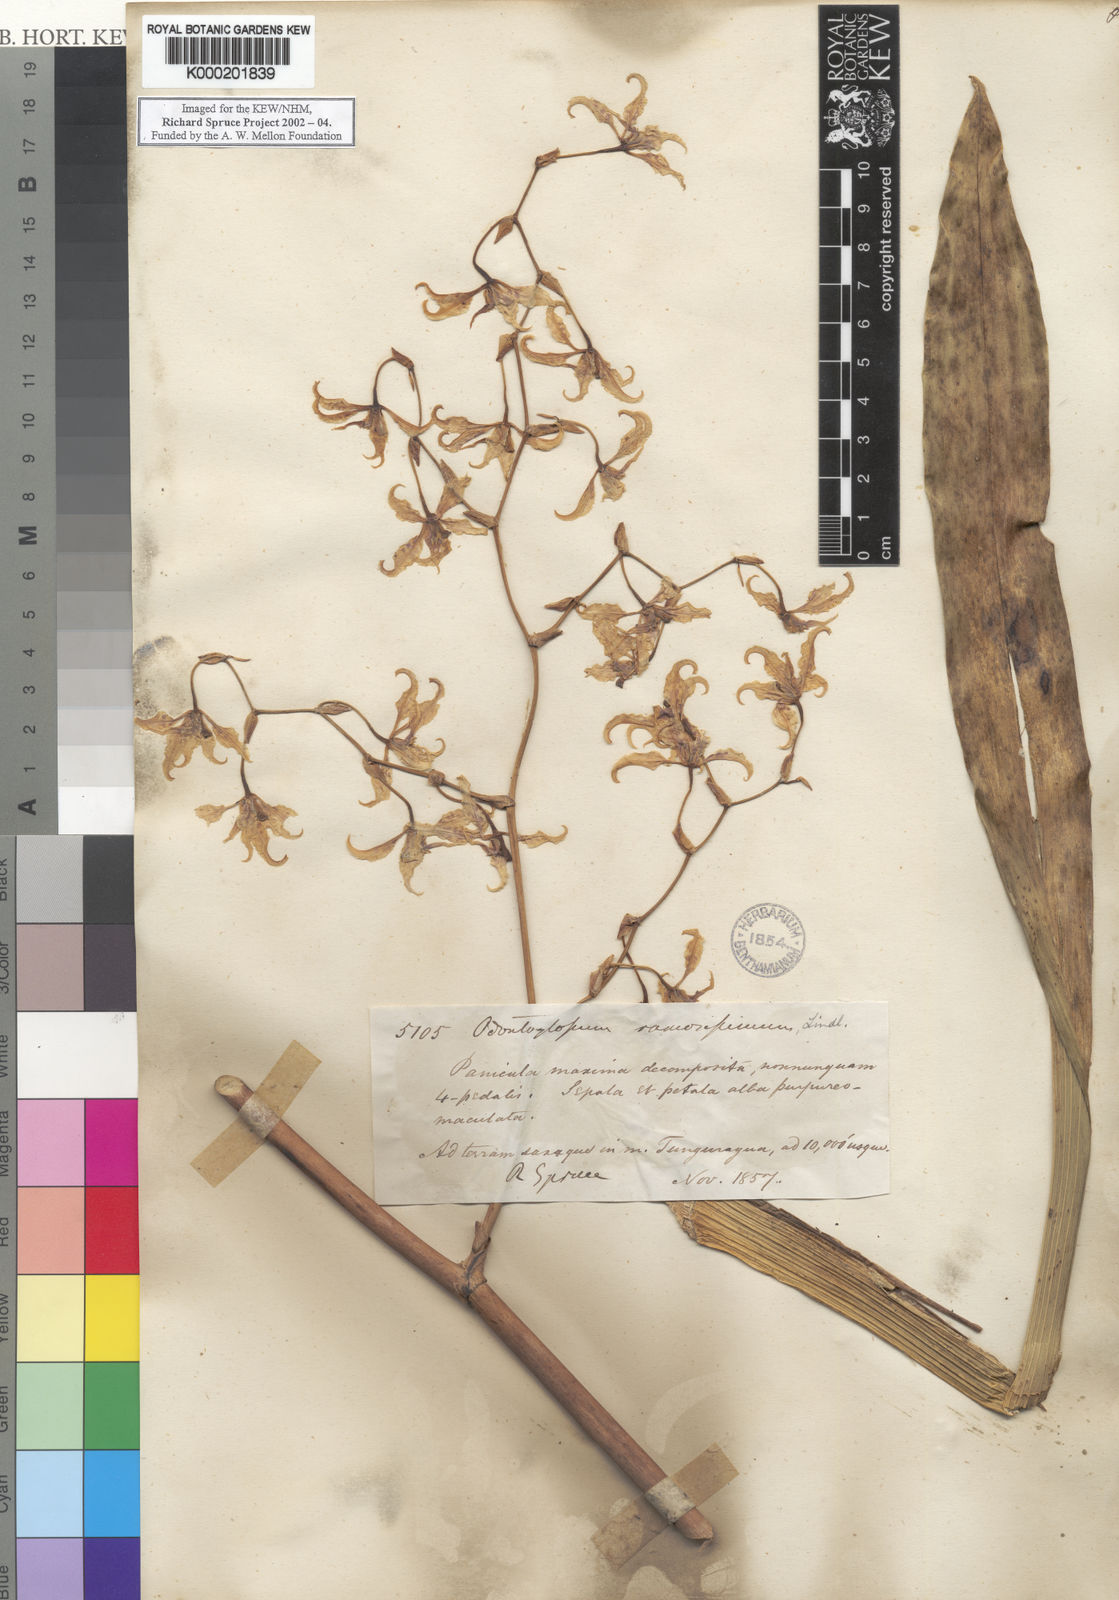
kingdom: Plantae
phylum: Tracheophyta
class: Liliopsida
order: Asparagales
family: Orchidaceae
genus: Cyrtochilum
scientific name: Cyrtochilum ramosissimum
